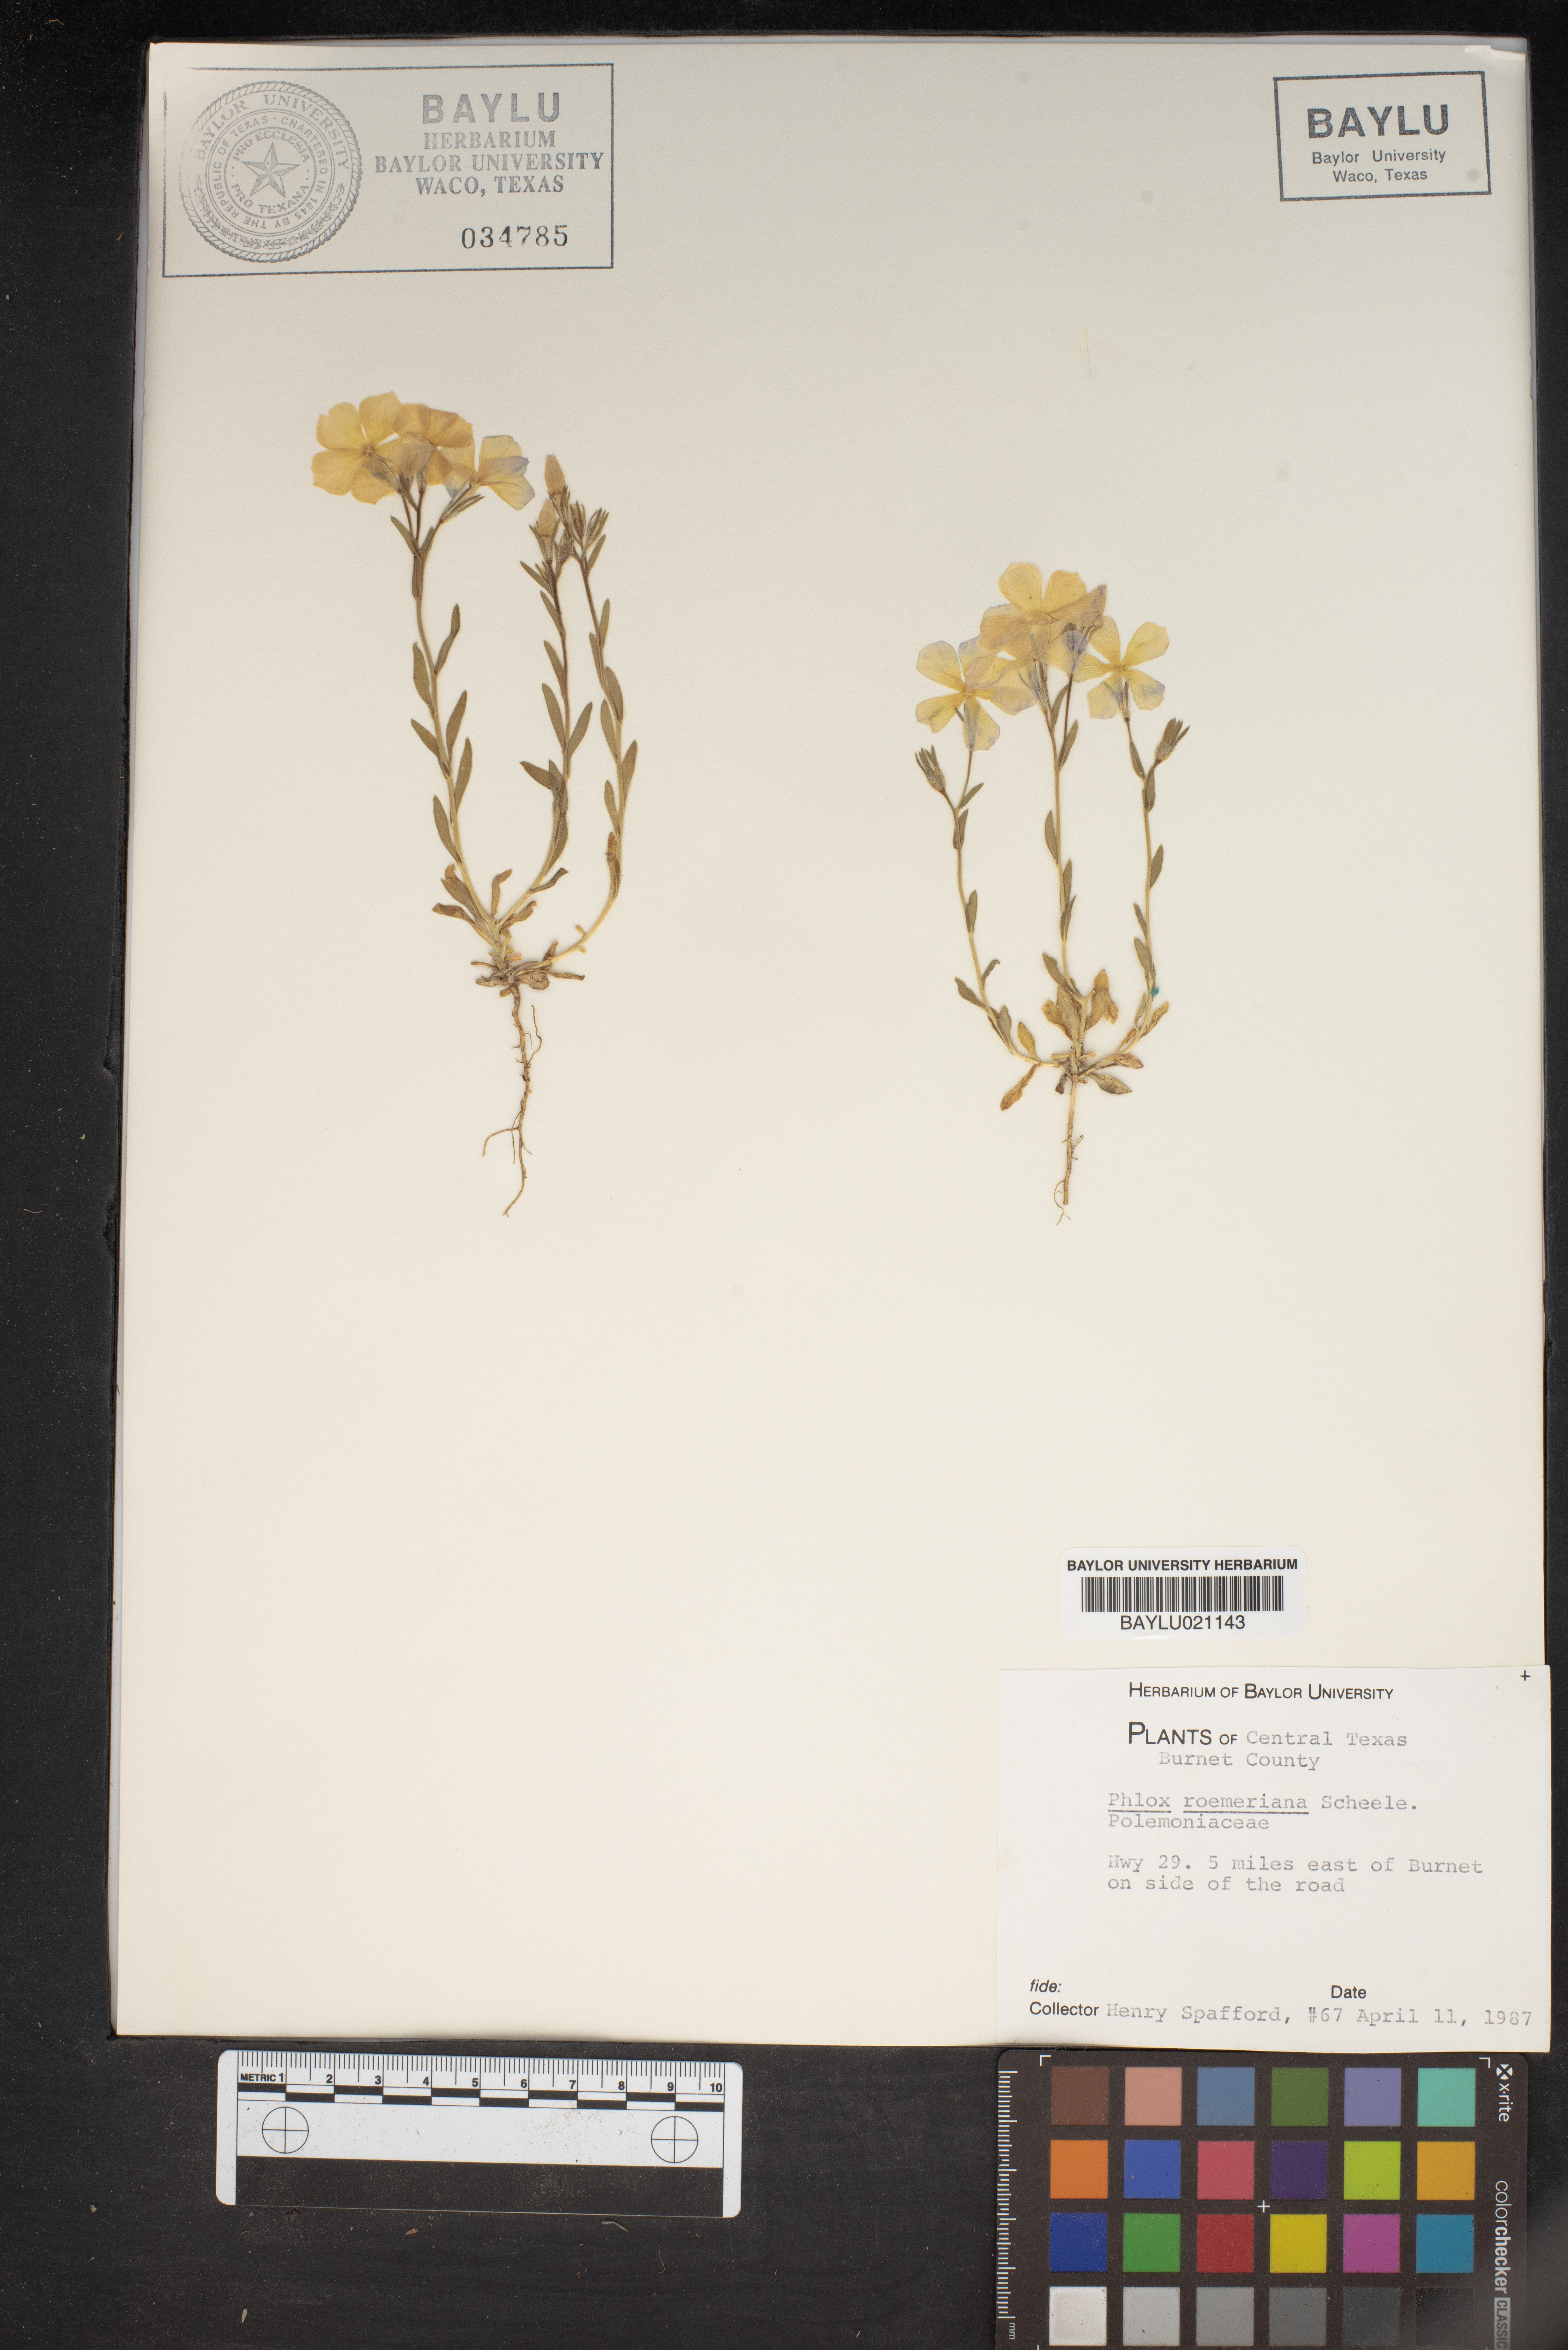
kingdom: Plantae
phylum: Tracheophyta
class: Magnoliopsida
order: Ericales
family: Polemoniaceae
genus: Phlox
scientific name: Phlox roemeriana
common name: Roemer's phlox
